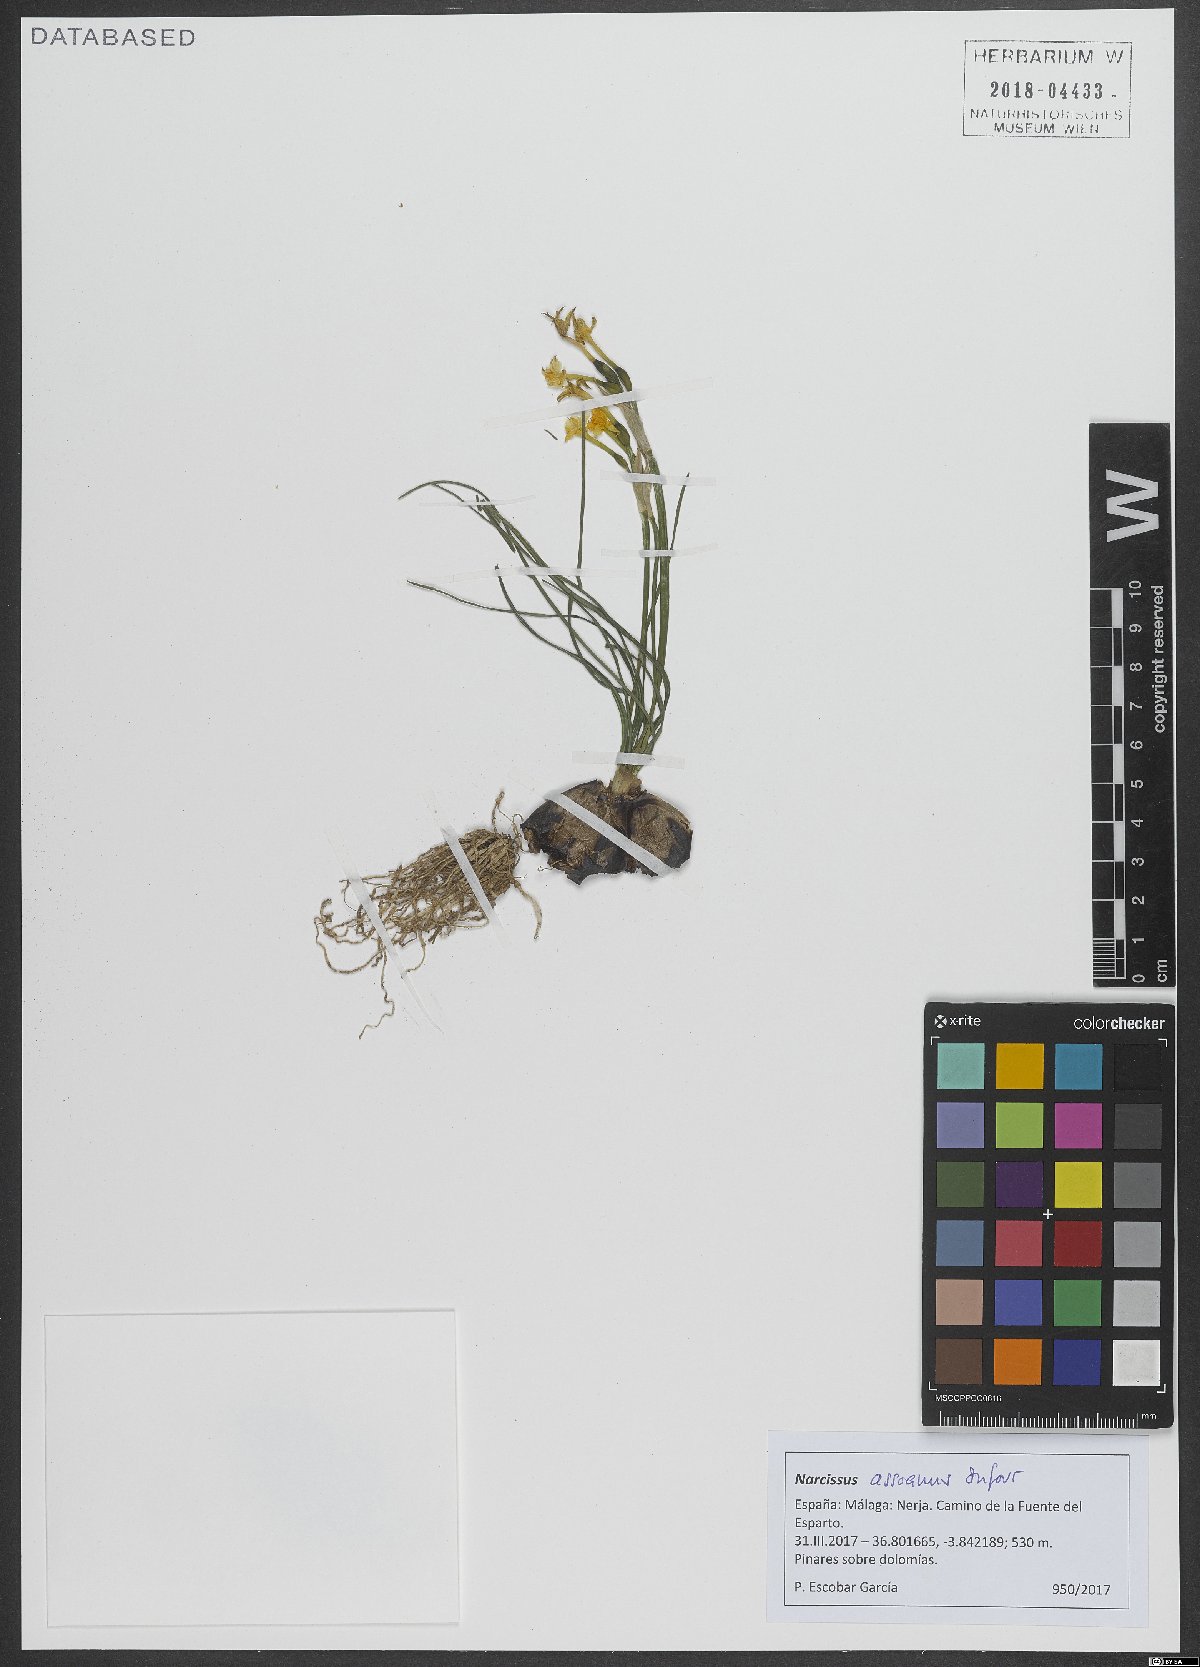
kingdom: Plantae
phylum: Tracheophyta
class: Liliopsida
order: Asparagales
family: Amaryllidaceae
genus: Narcissus
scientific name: Narcissus assoanus
